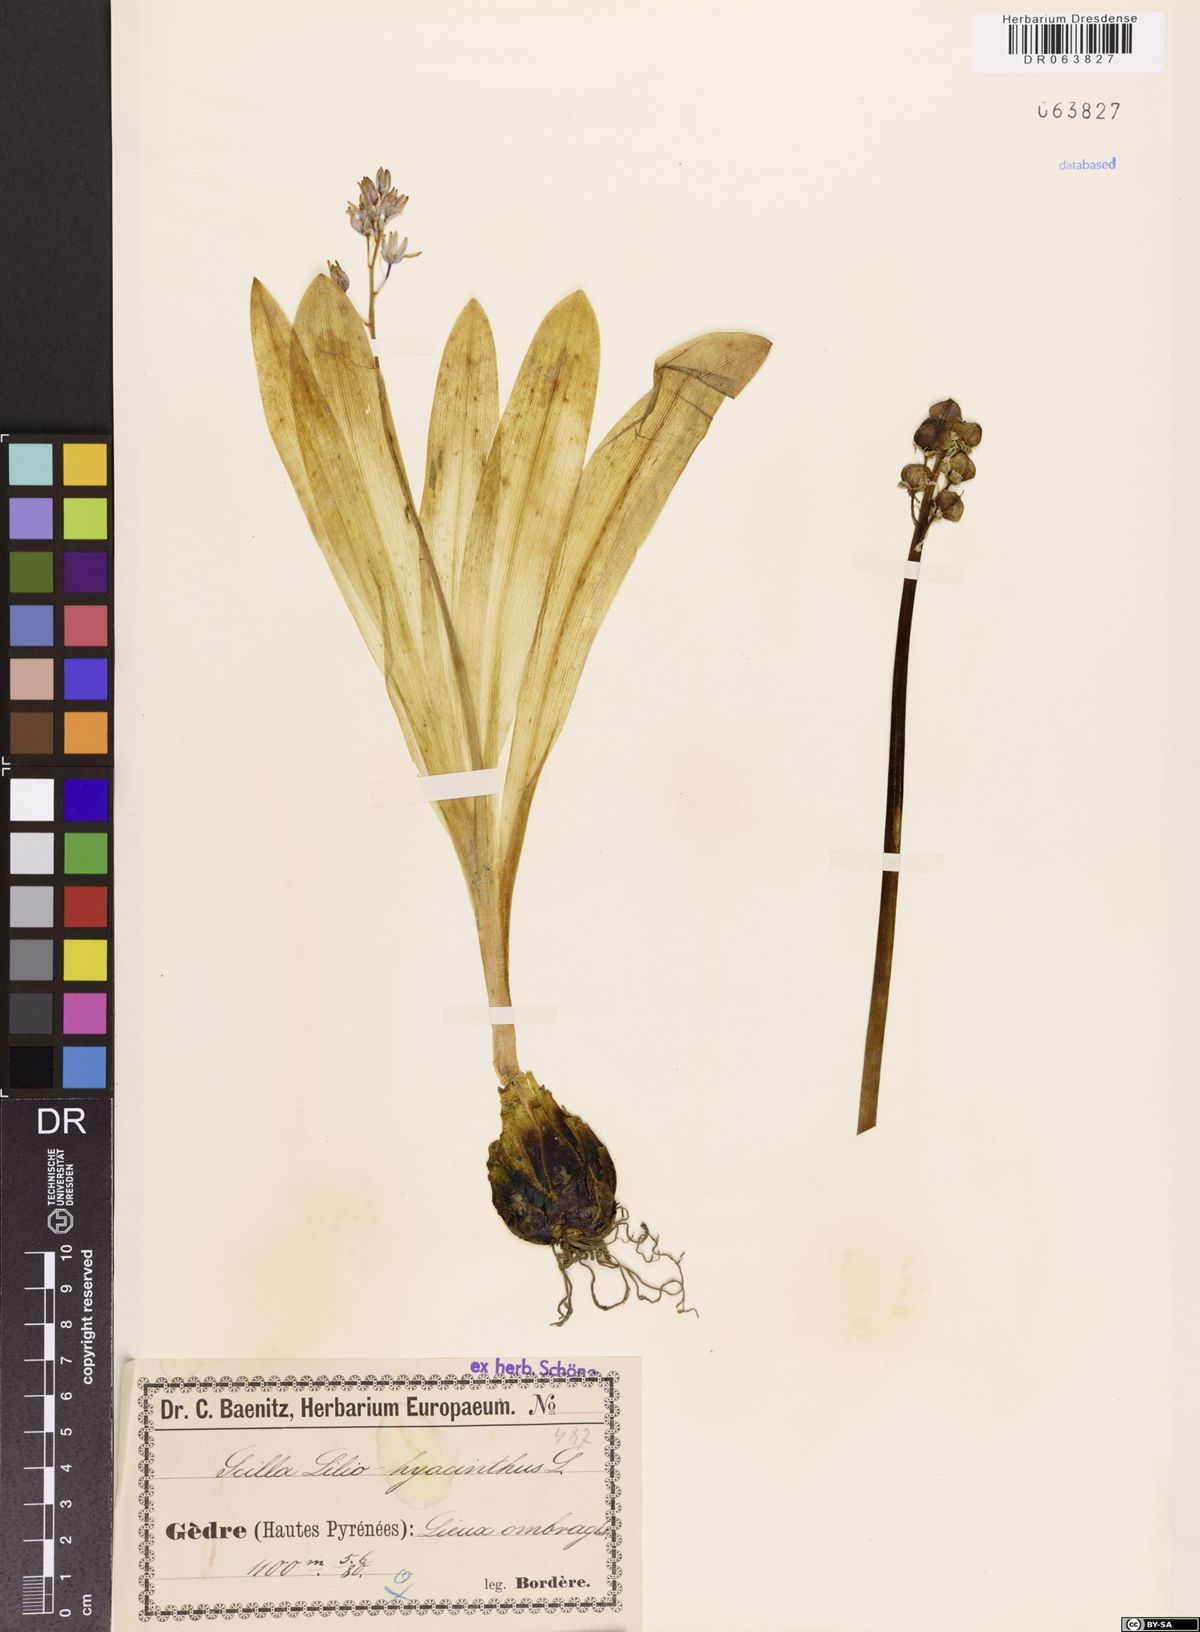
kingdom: Plantae
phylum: Tracheophyta
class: Liliopsida
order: Asparagales
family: Asparagaceae
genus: Scilla
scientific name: Scilla lilio-hyacinthus
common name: Pyrenean squill
